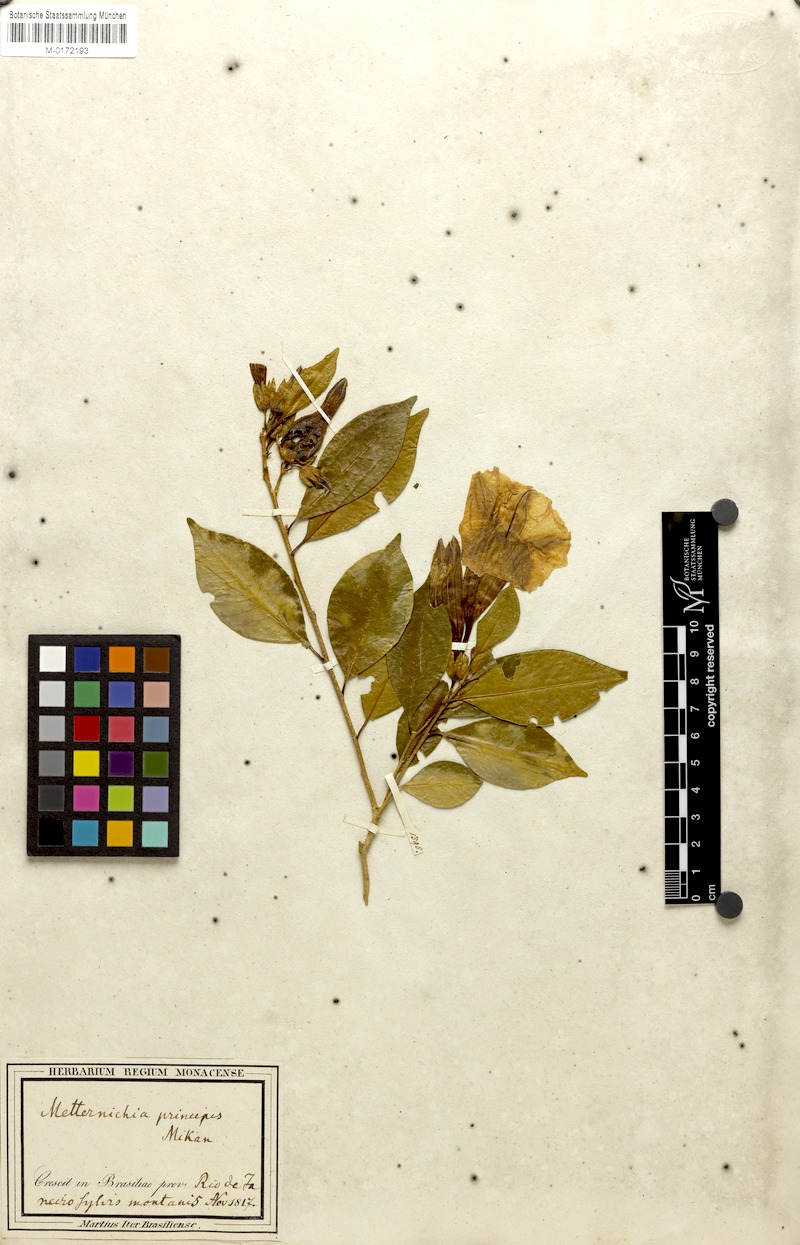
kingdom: Plantae
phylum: Tracheophyta
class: Magnoliopsida
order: Solanales
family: Solanaceae
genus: Metternichia
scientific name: Metternichia princeps
